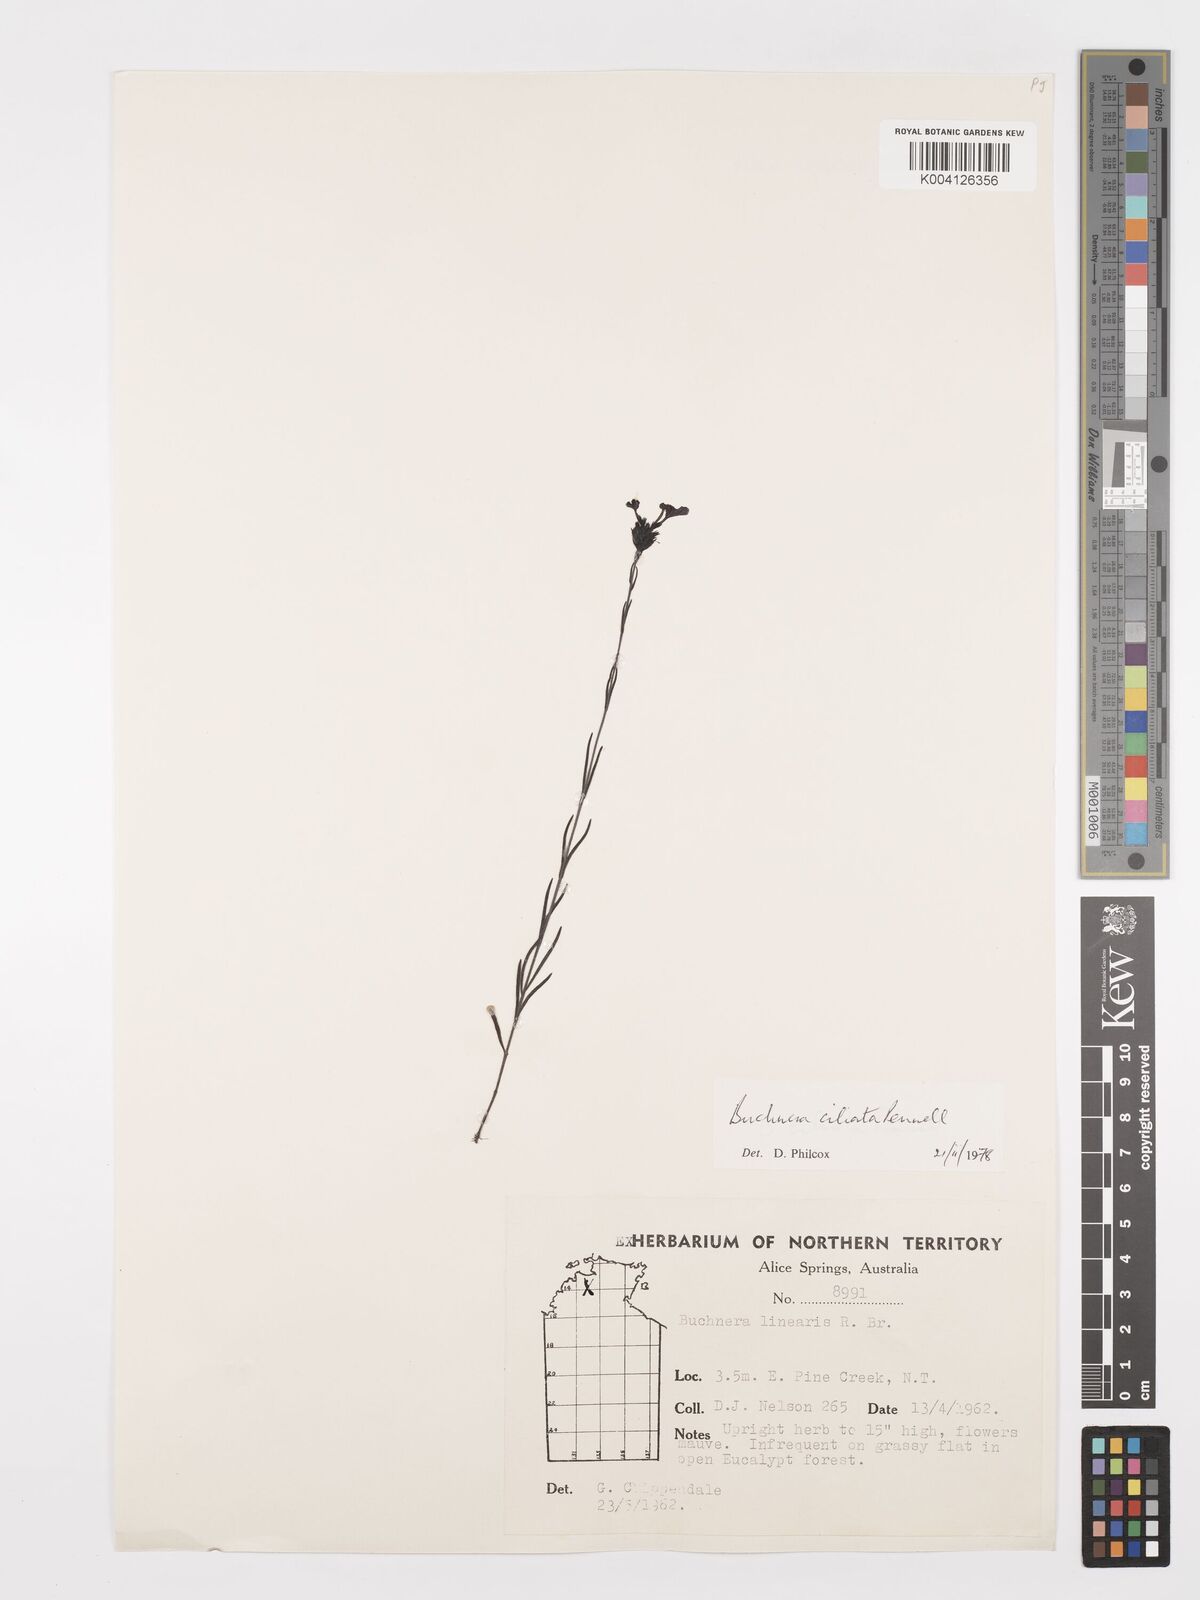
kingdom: Plantae
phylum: Tracheophyta
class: Magnoliopsida
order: Lamiales
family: Orobanchaceae
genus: Buchnera
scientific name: Buchnera ciliata
